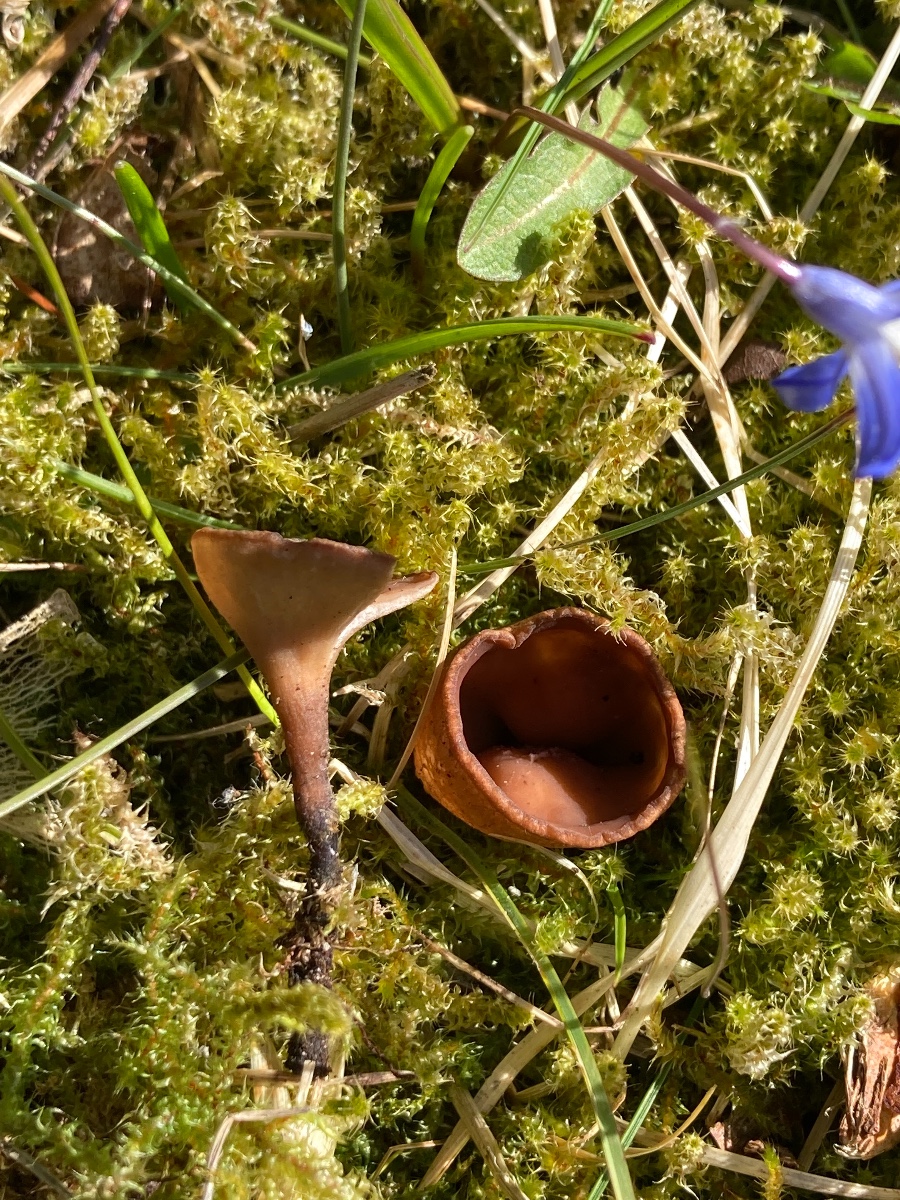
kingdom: Fungi
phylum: Ascomycota
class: Leotiomycetes
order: Helotiales
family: Sclerotiniaceae
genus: Dumontinia
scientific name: Dumontinia tuberosa
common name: anemone-knoldskive
